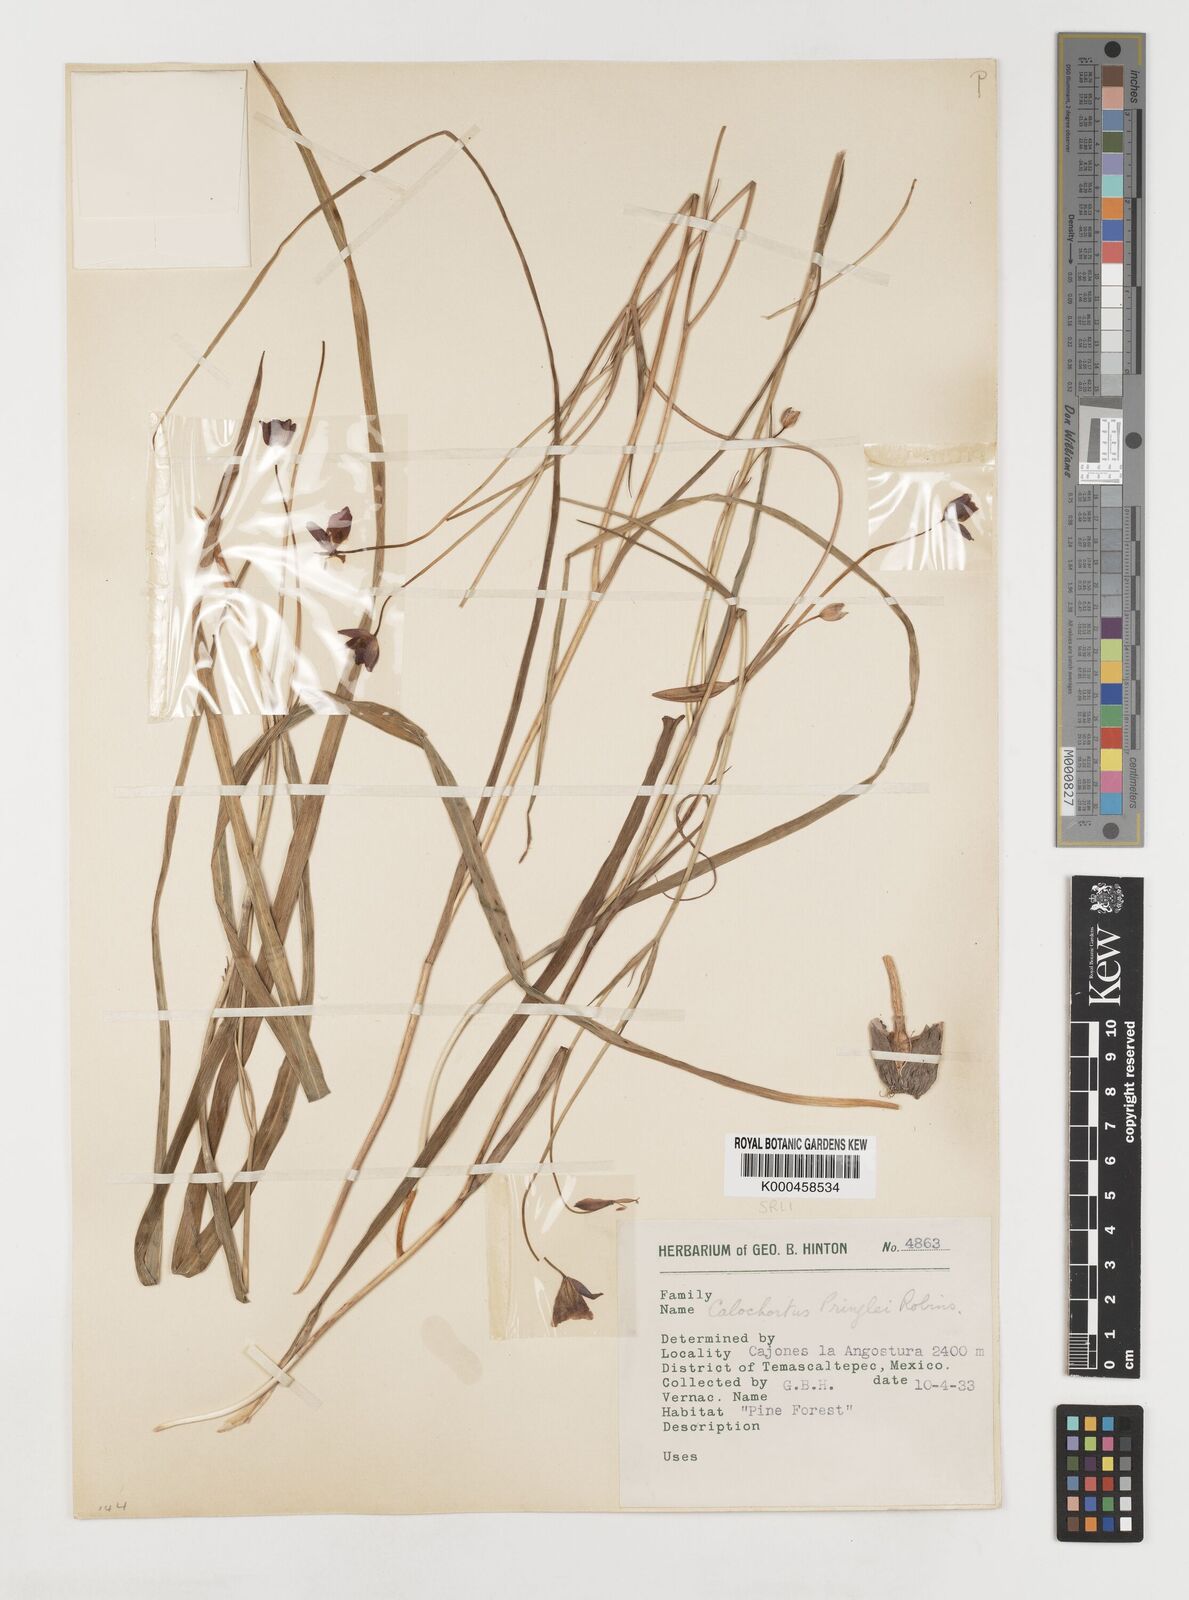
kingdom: Plantae
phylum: Tracheophyta
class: Liliopsida
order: Liliales
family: Liliaceae
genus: Calochortus
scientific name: Calochortus pringlei
